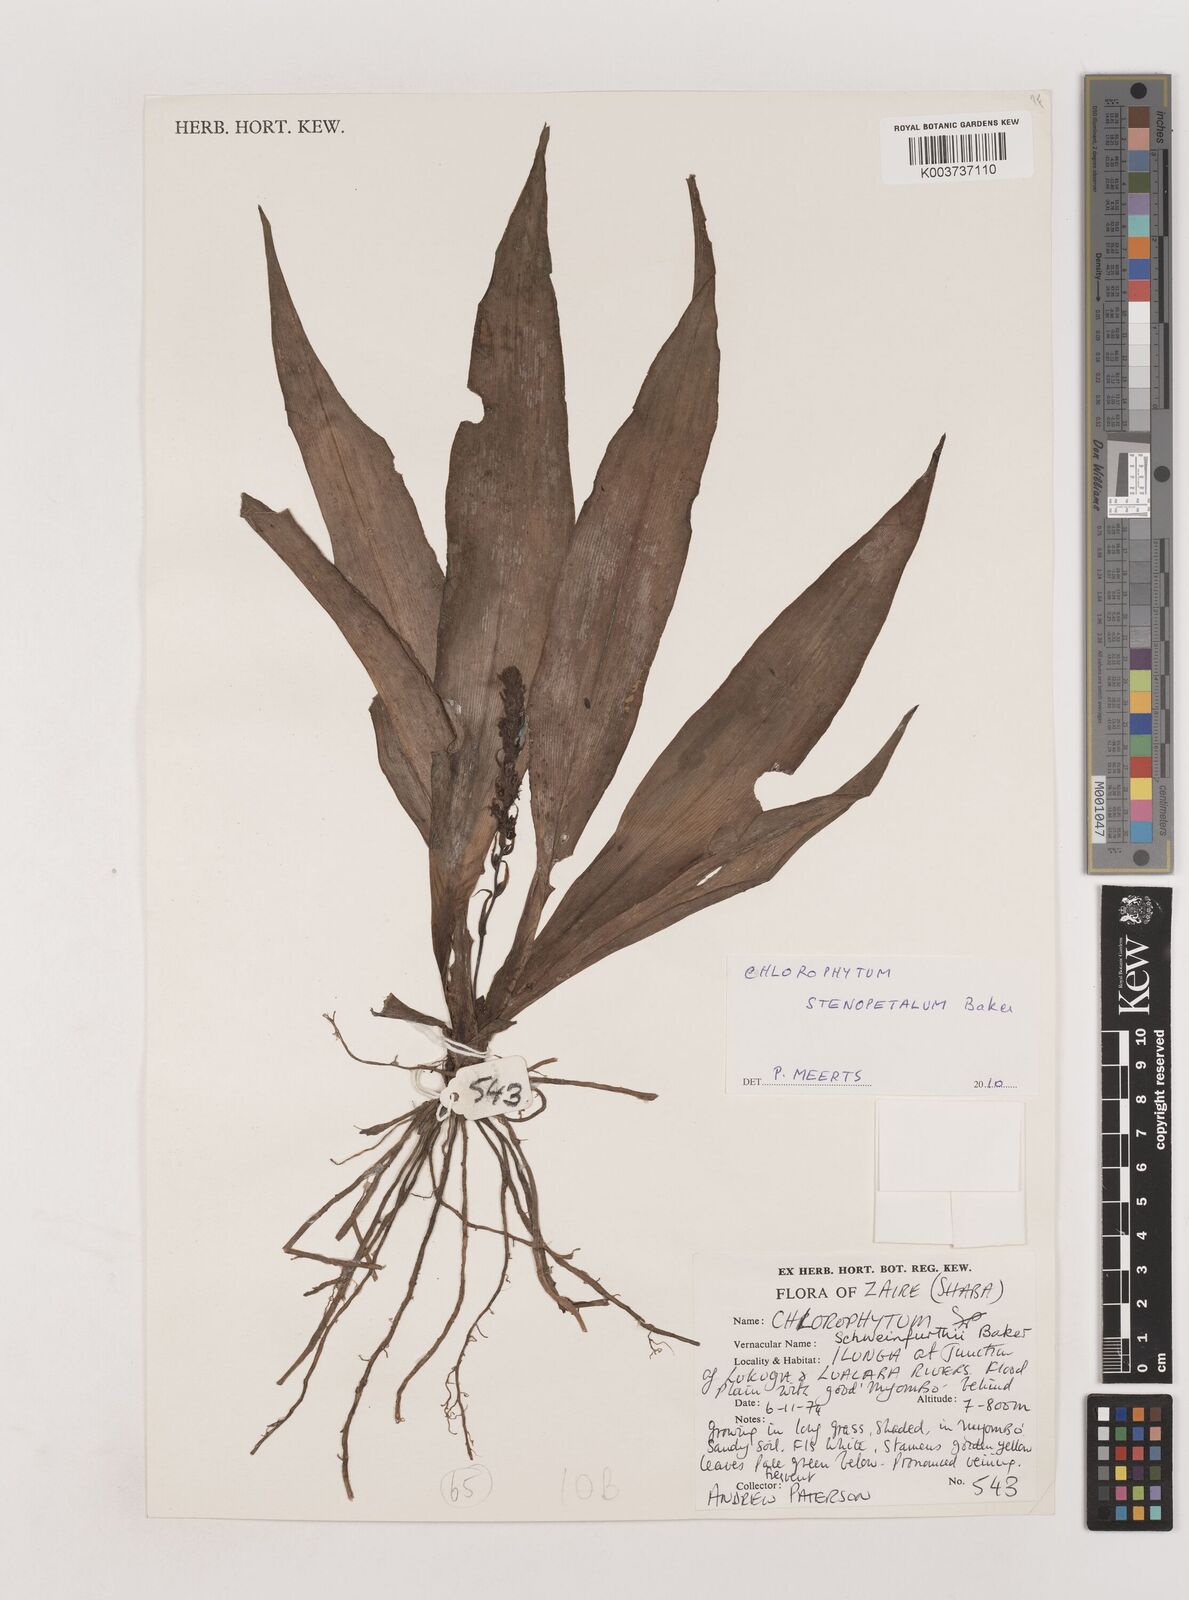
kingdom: Plantae
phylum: Tracheophyta
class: Liliopsida
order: Asparagales
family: Asparagaceae
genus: Chlorophytum
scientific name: Chlorophytum stenopetalum
